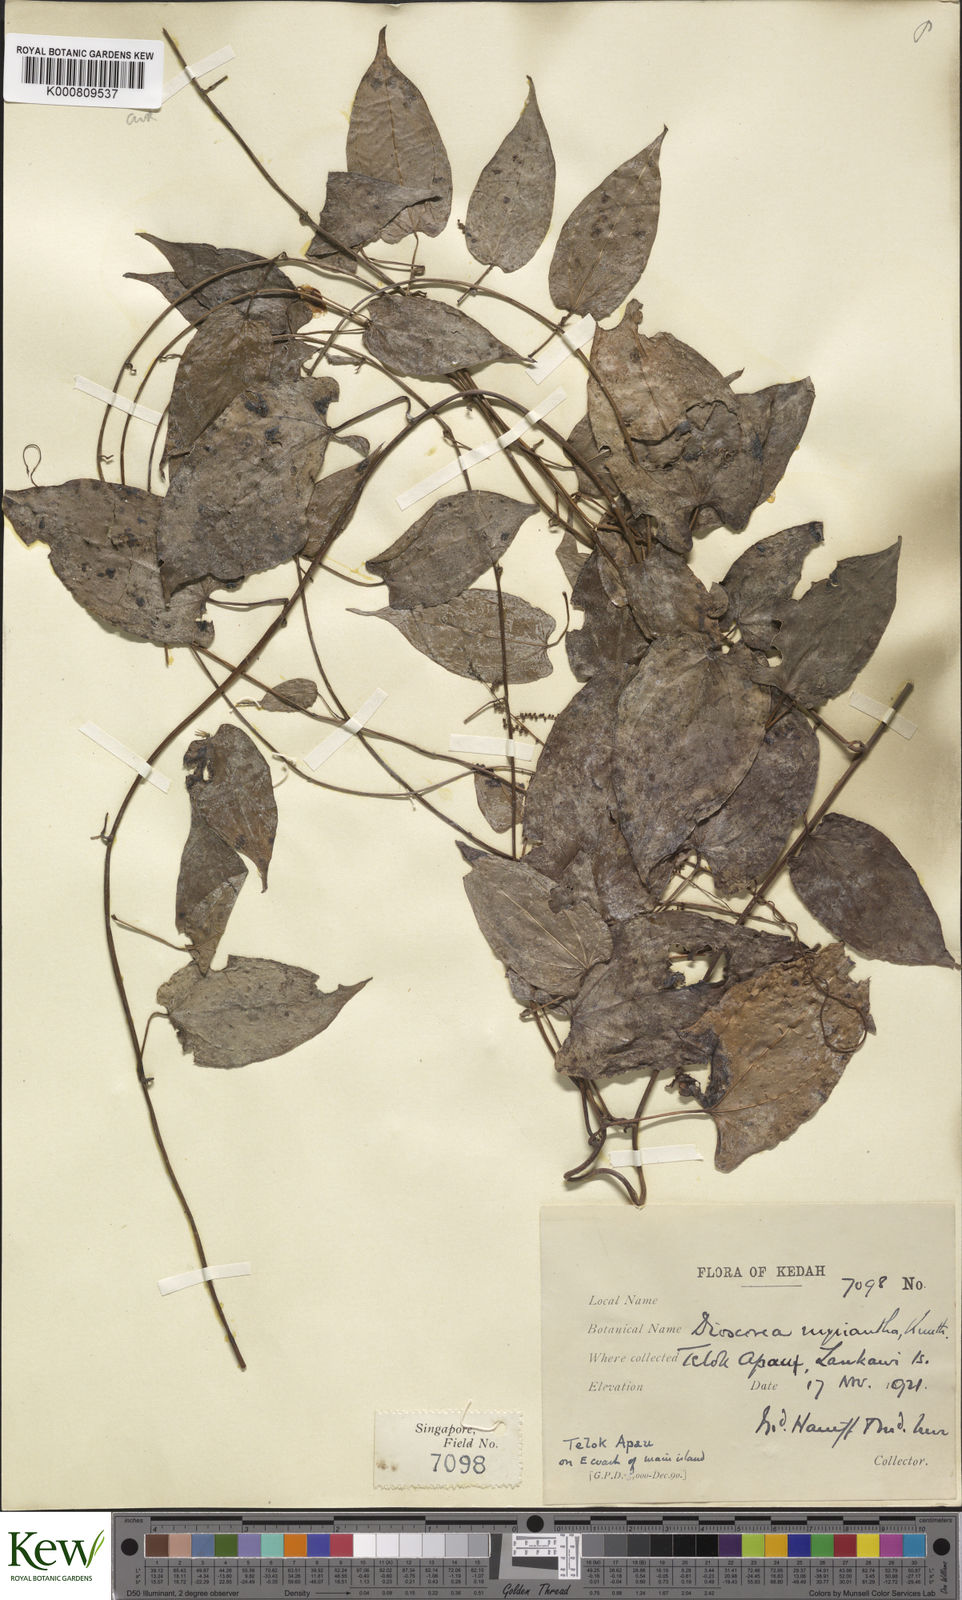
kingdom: Plantae
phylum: Tracheophyta
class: Liliopsida
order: Dioscoreales
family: Dioscoreaceae
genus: Dioscorea
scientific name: Dioscorea filiformis
